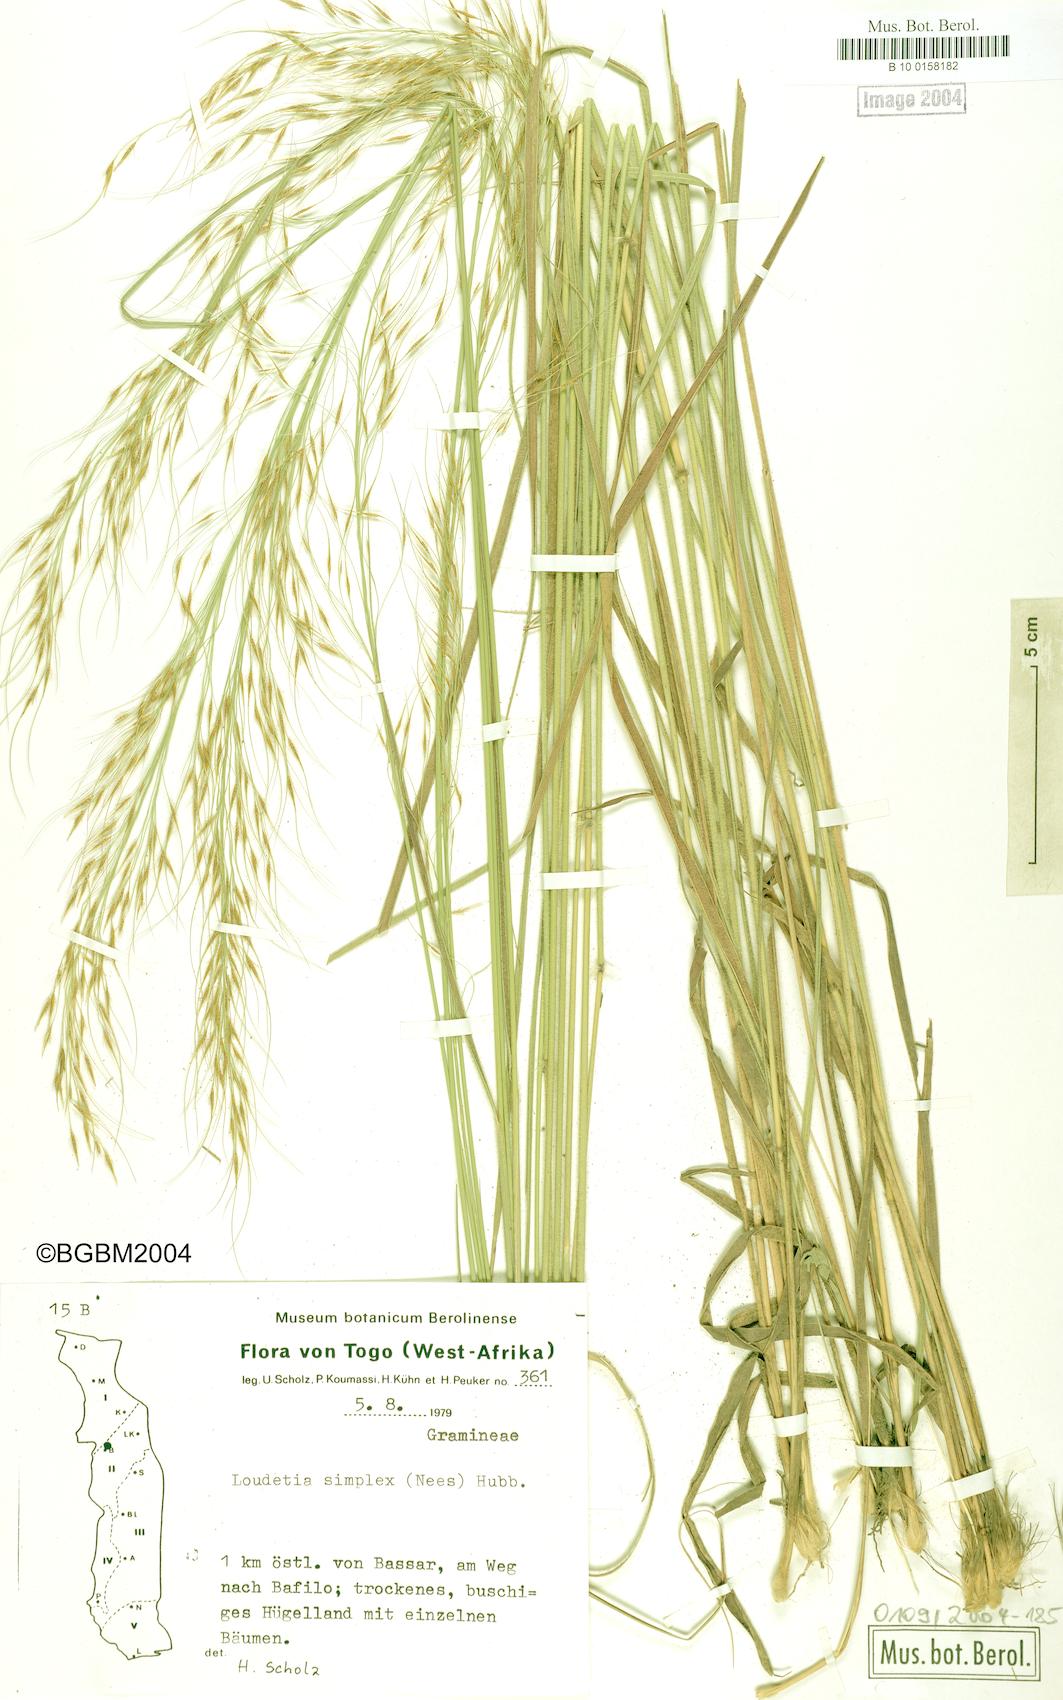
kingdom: Plantae
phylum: Tracheophyta
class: Liliopsida
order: Poales
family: Poaceae
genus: Loudetia
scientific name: Loudetia simplex
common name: Common russet grass
